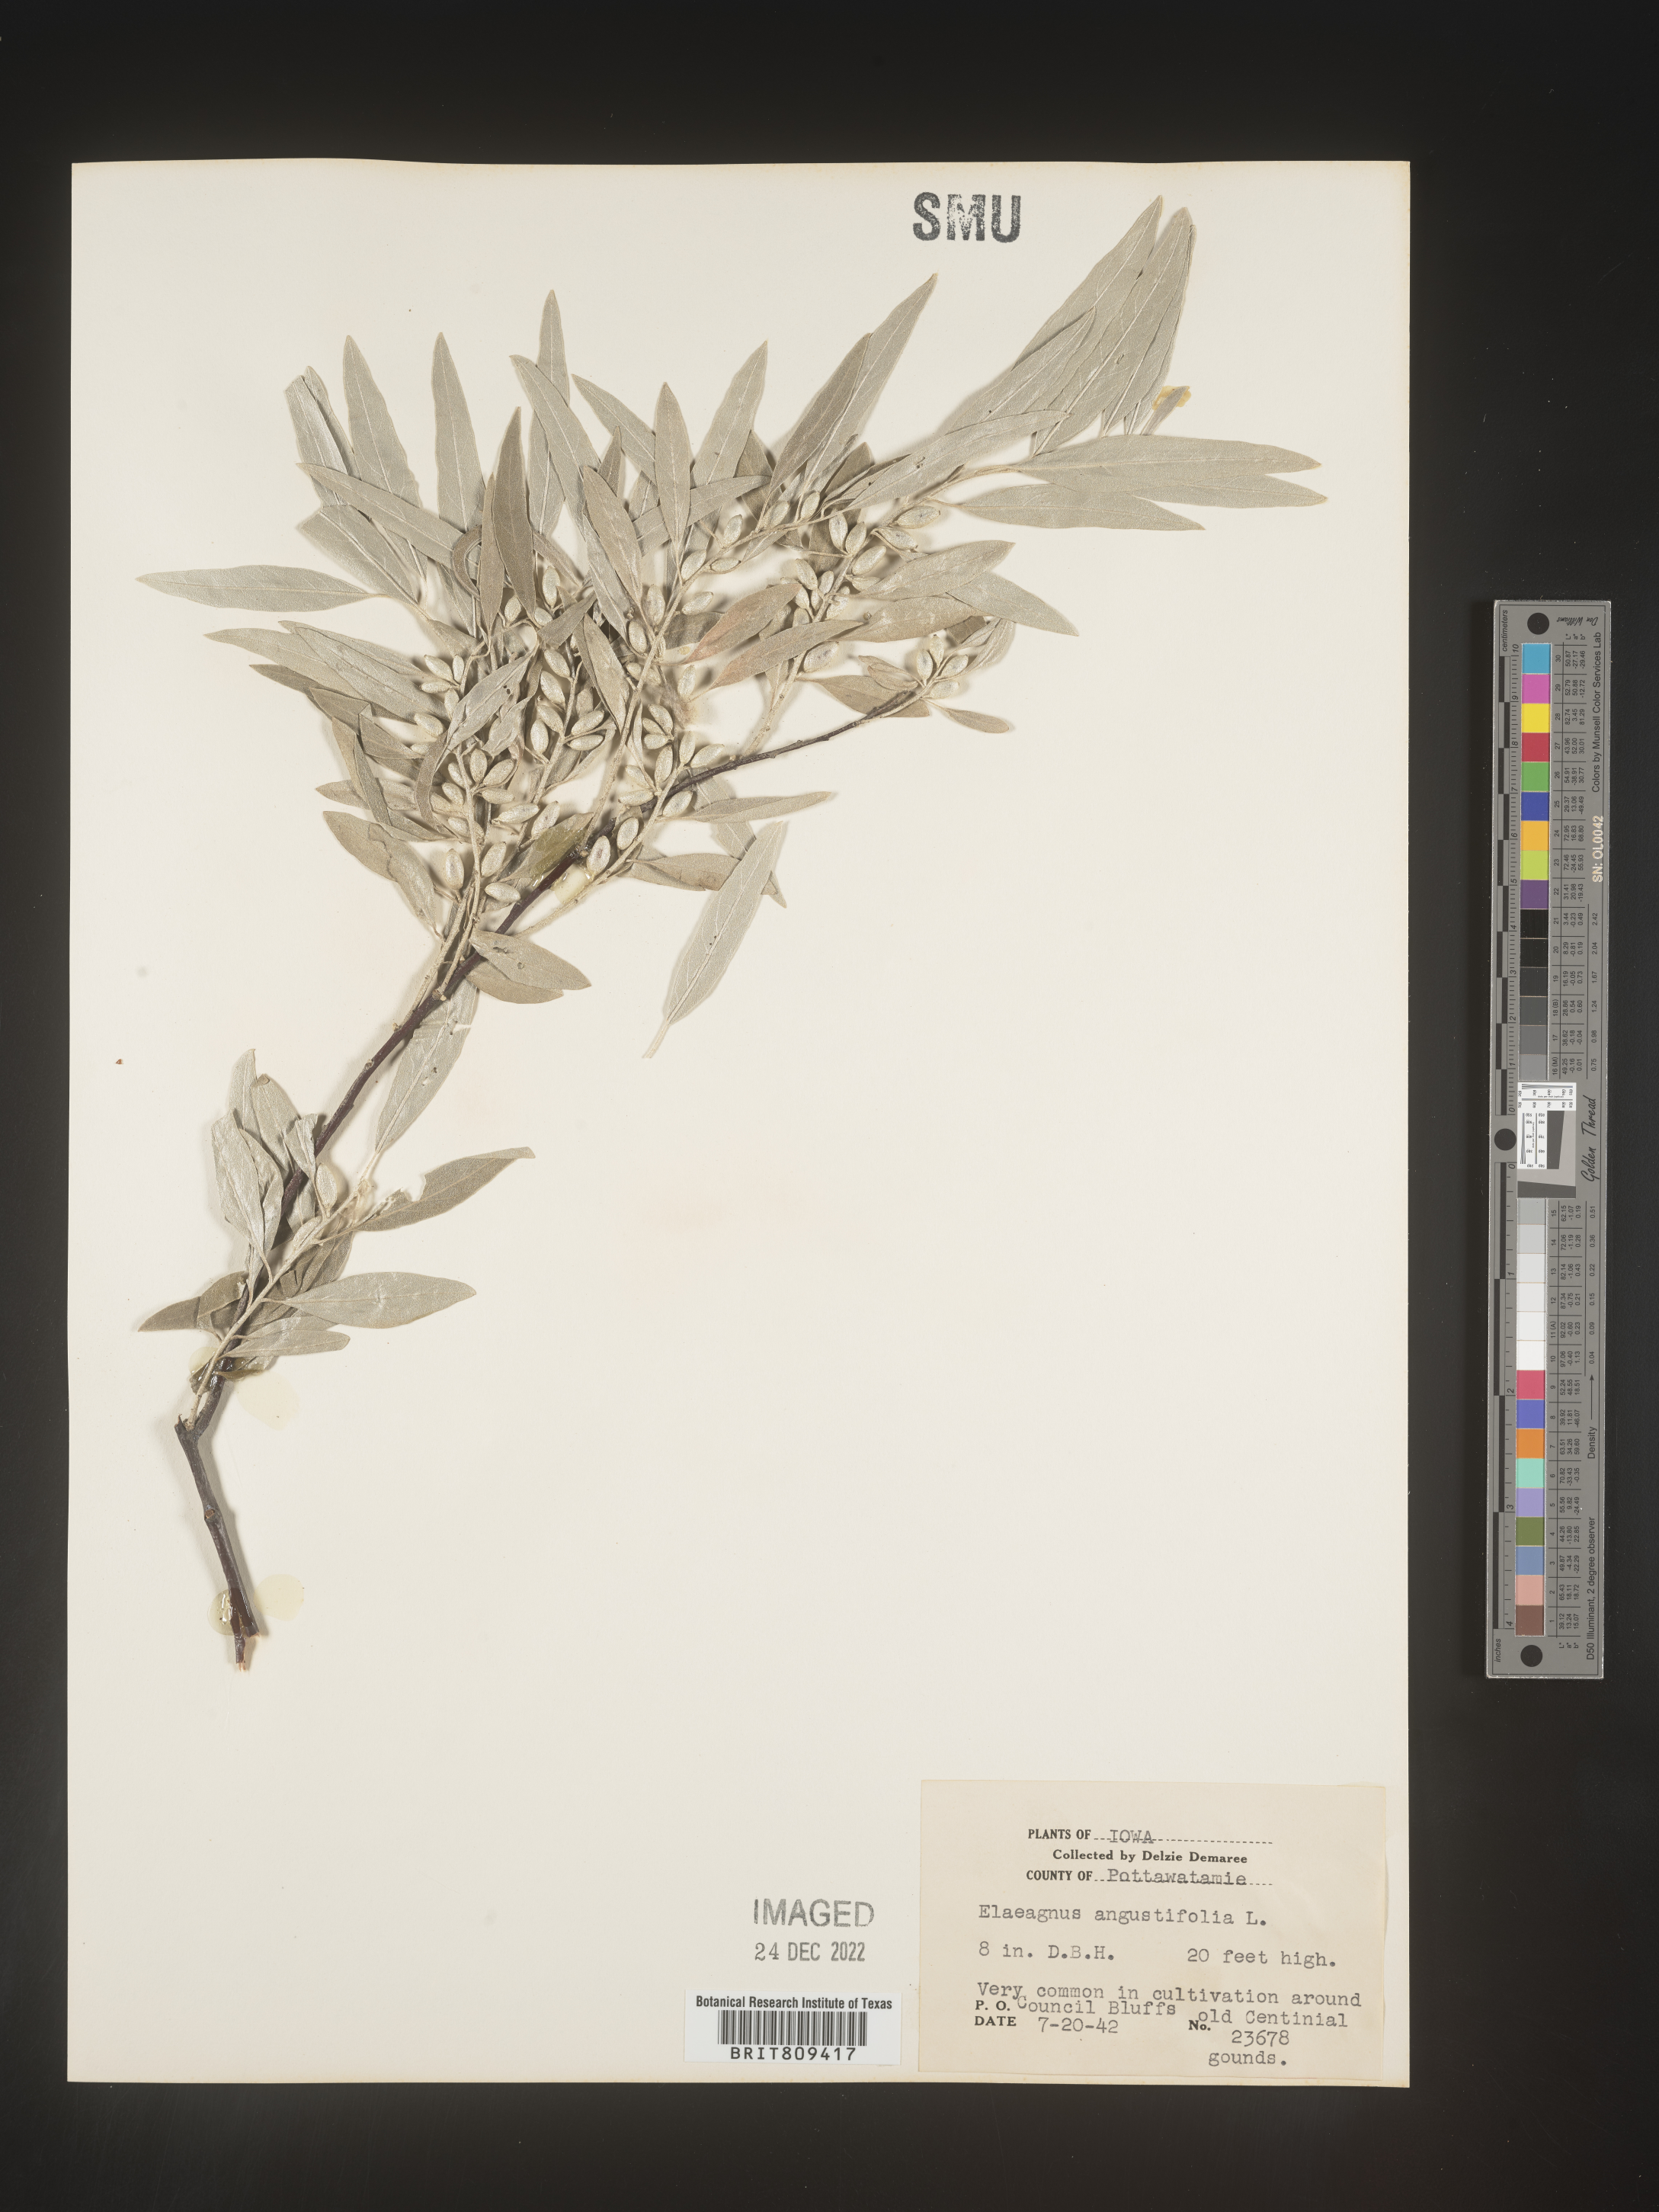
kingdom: Plantae
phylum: Tracheophyta
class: Magnoliopsida
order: Rosales
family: Elaeagnaceae
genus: Elaeagnus
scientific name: Elaeagnus
